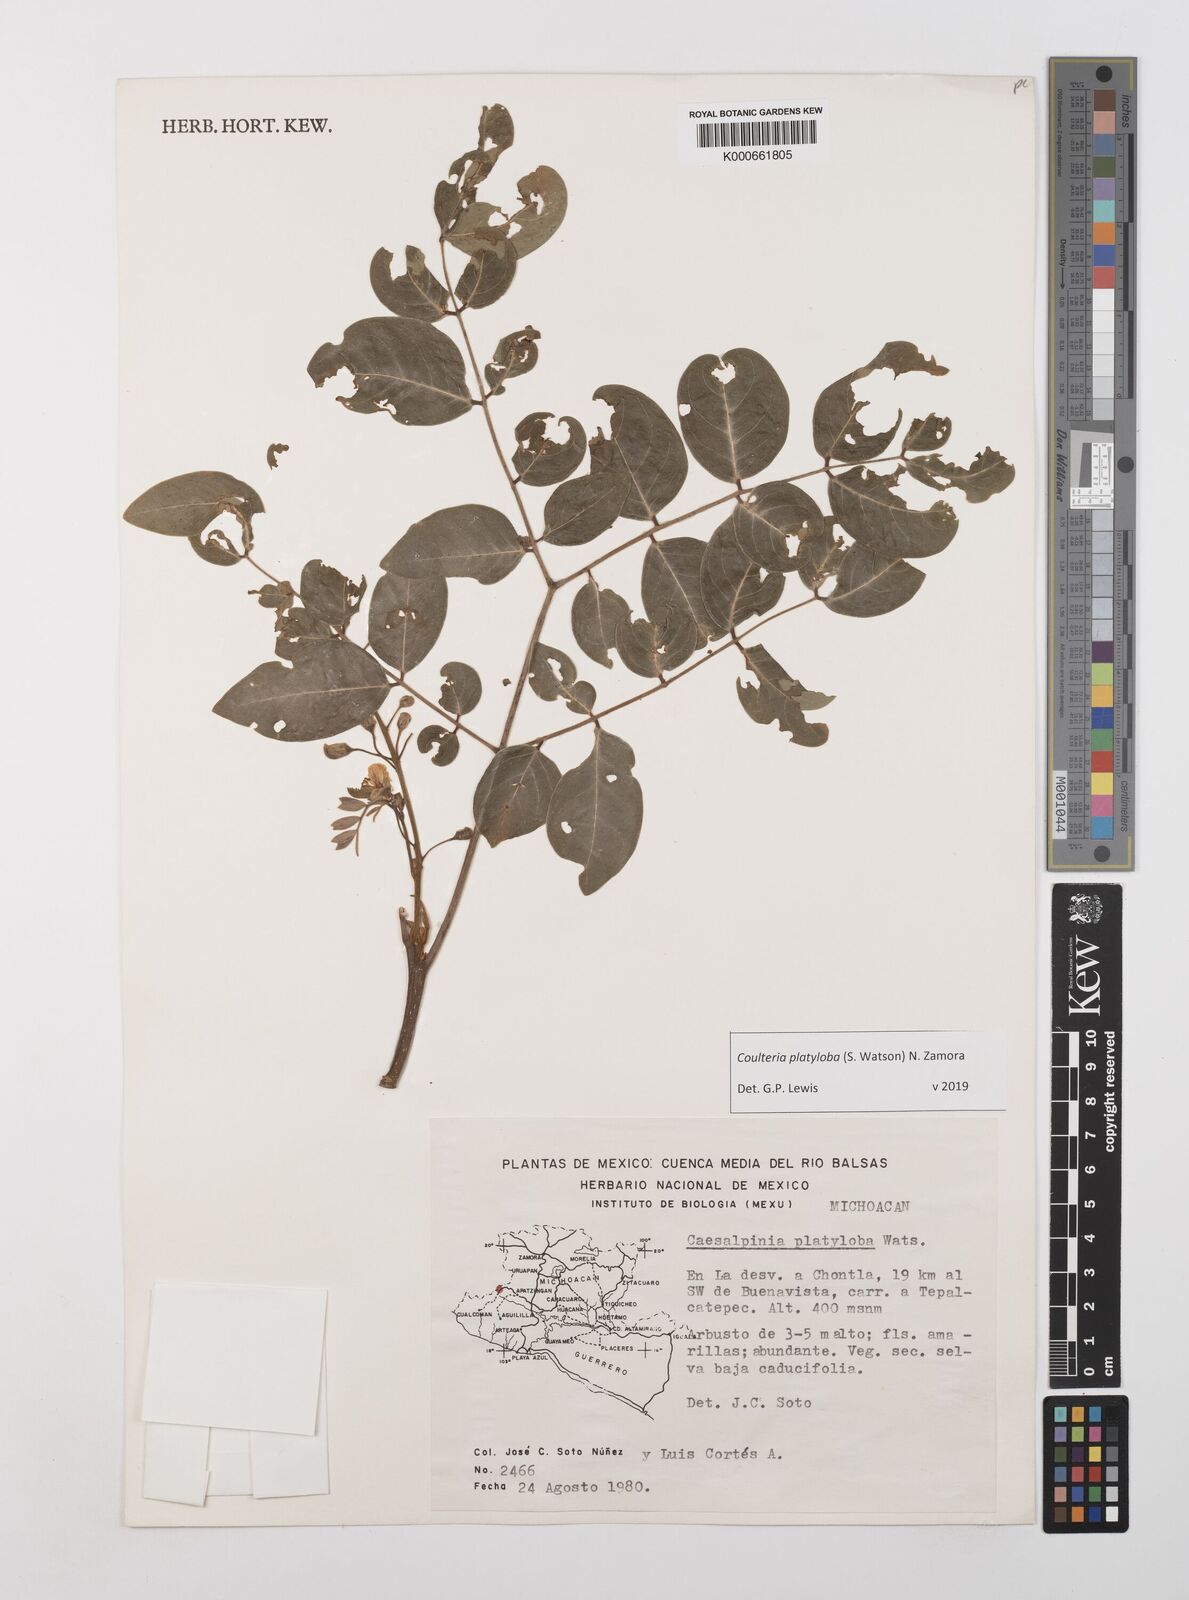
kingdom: Plantae
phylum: Tracheophyta
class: Magnoliopsida
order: Fabales
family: Fabaceae
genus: Coulteria
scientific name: Coulteria platyloba
